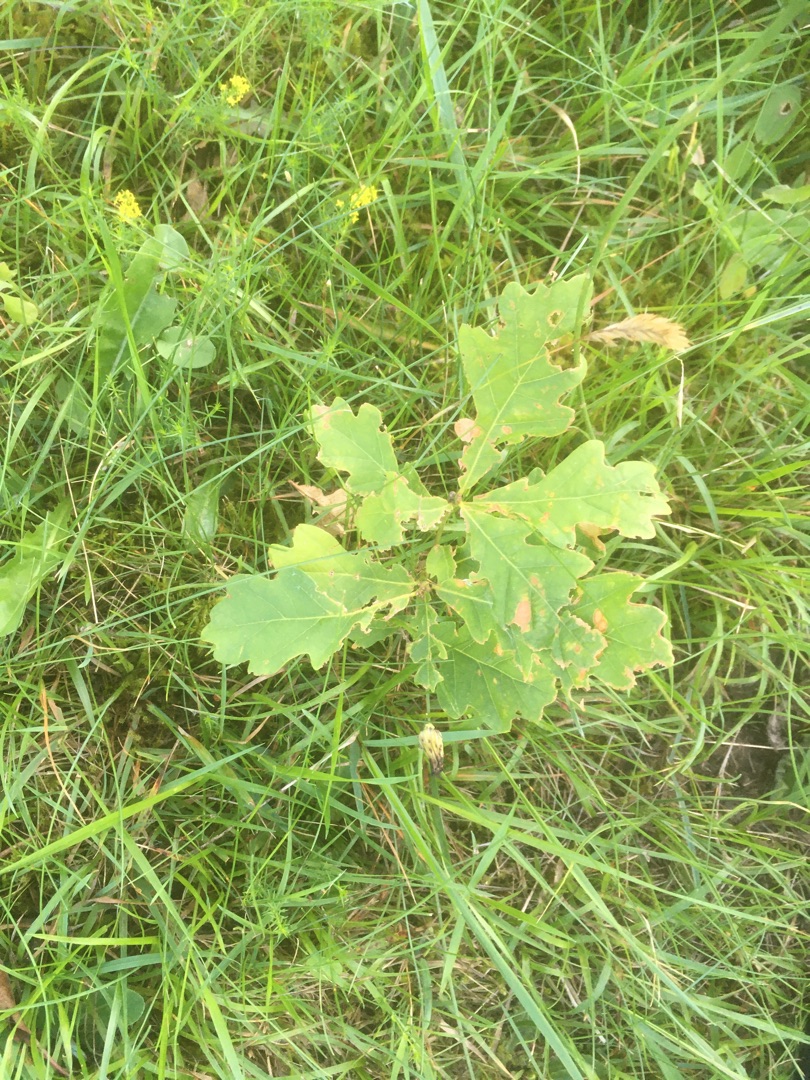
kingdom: Plantae
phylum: Tracheophyta
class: Magnoliopsida
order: Fagales
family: Fagaceae
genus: Quercus
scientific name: Quercus robur
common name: Stilk-eg/almindelig eg
